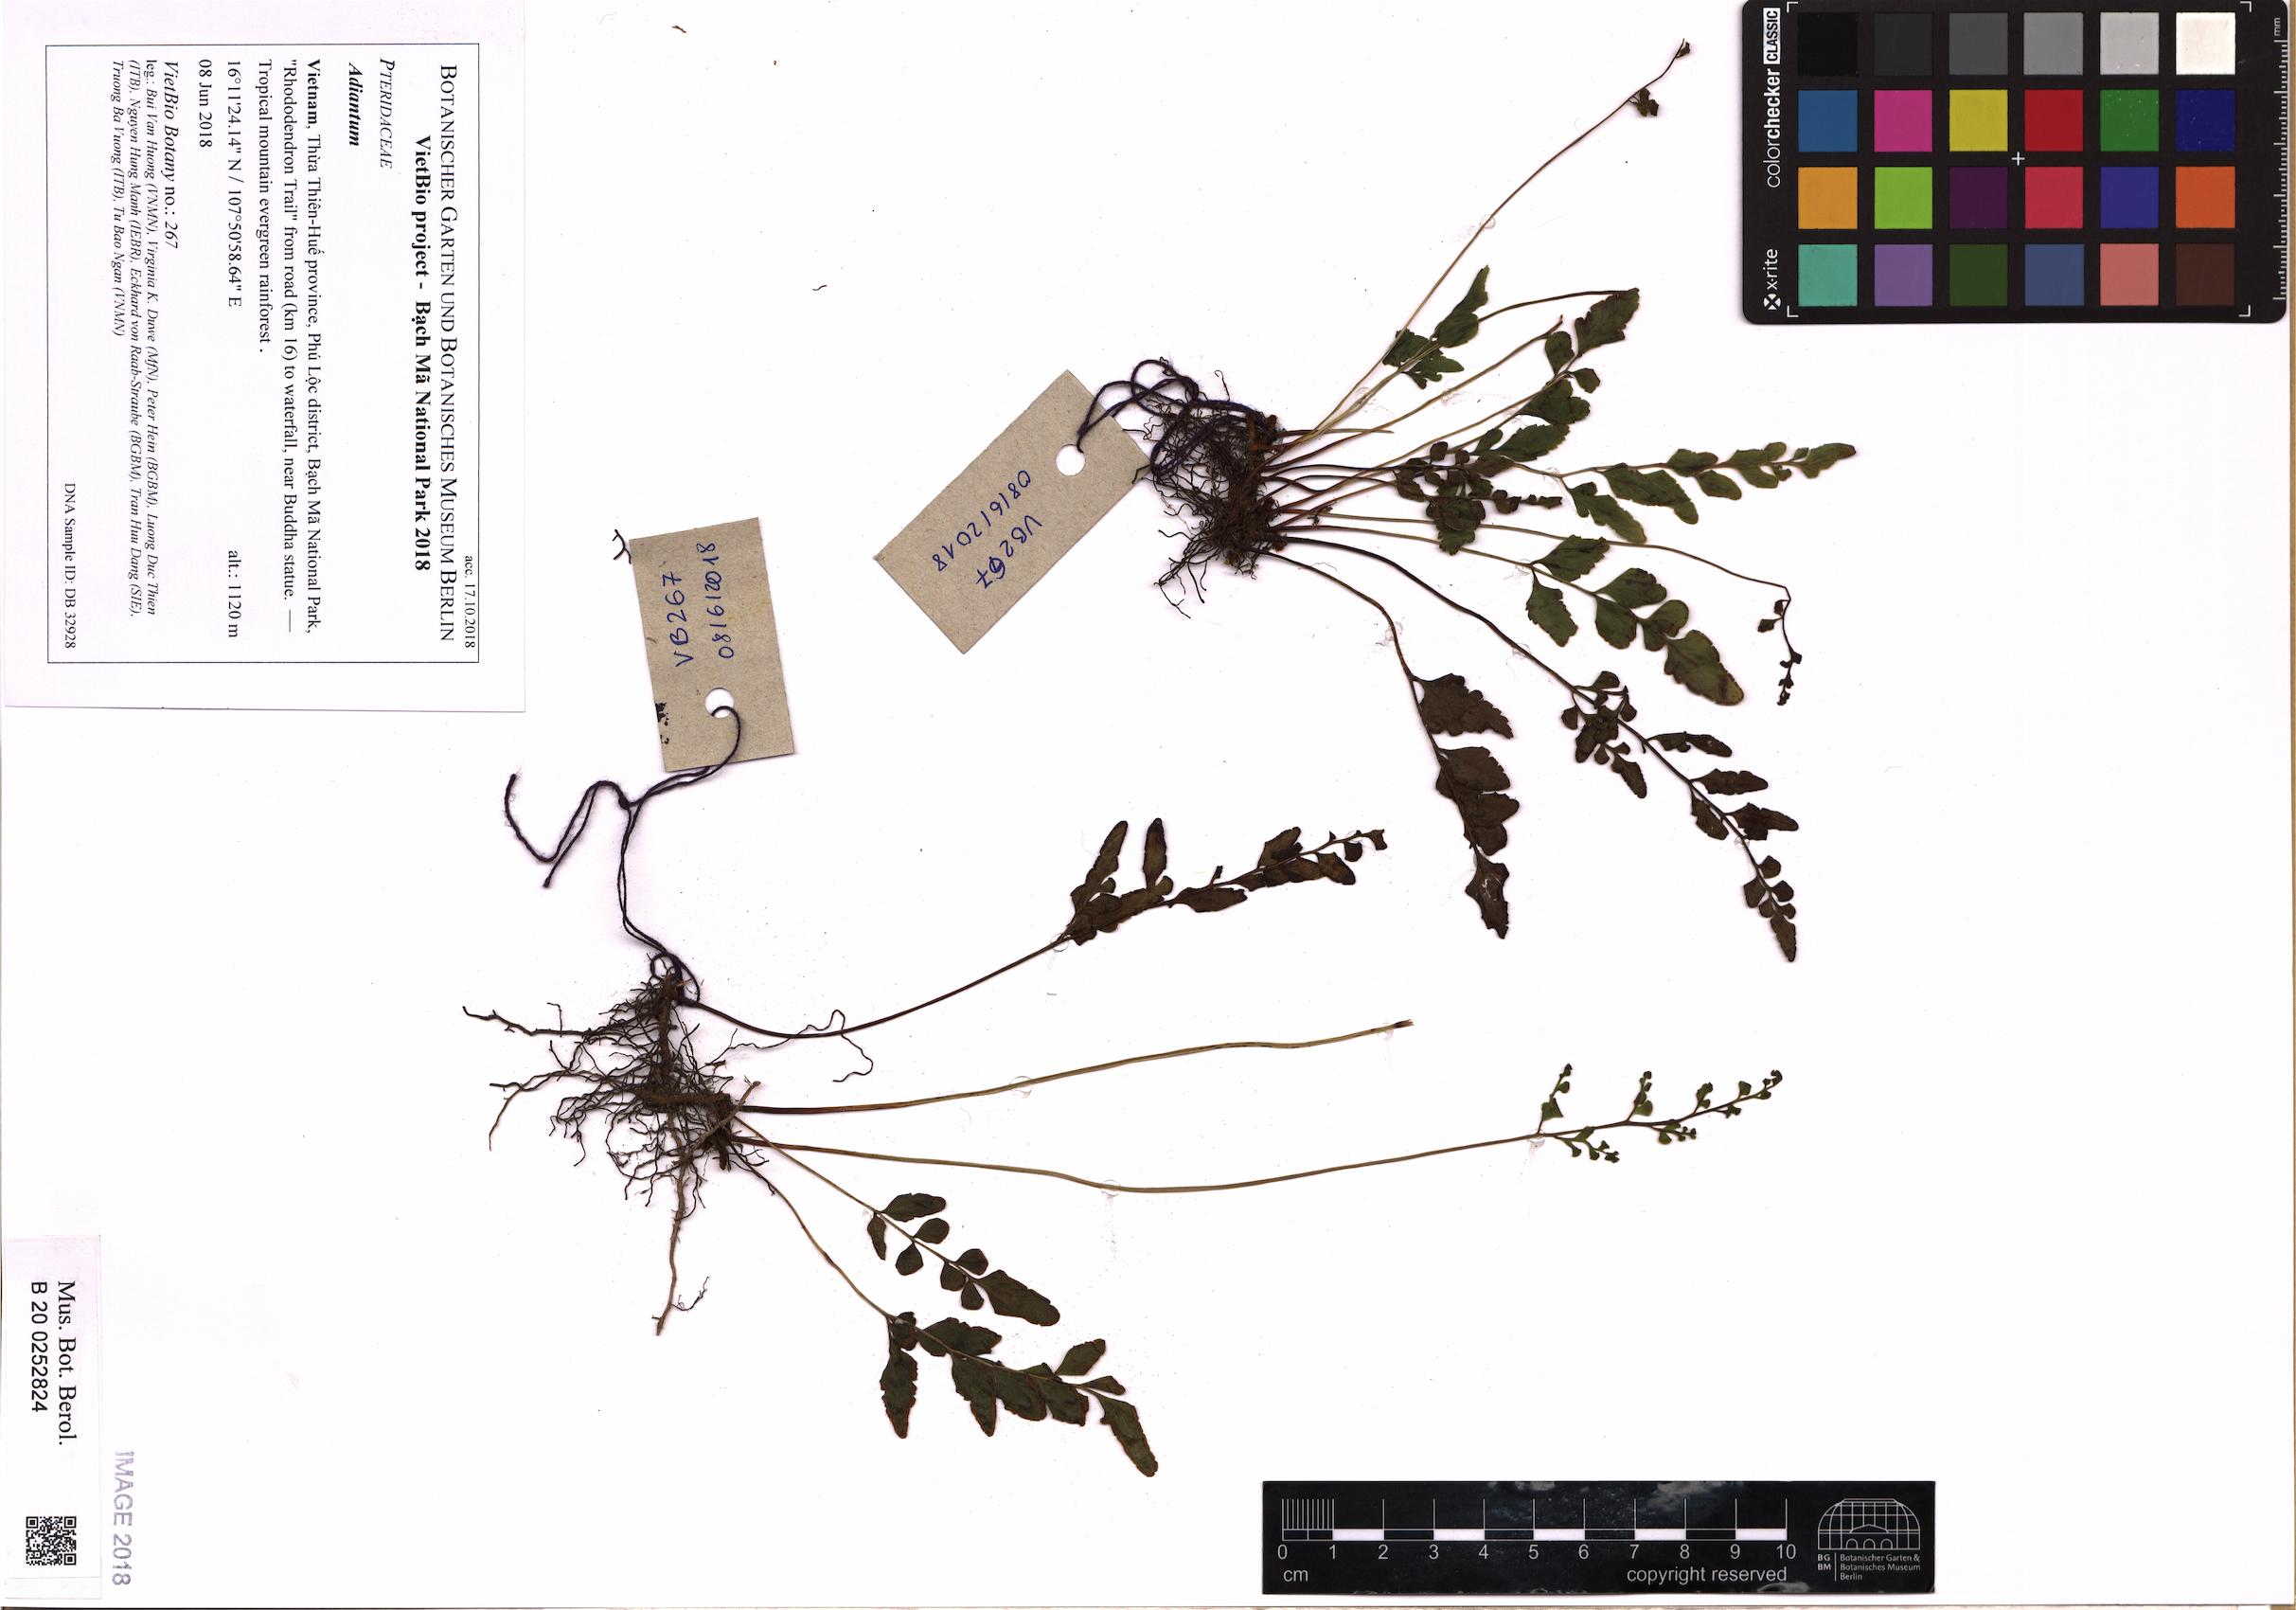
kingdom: Plantae
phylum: Tracheophyta
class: Polypodiopsida
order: Polypodiales
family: Pteridaceae
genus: Adiantum
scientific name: Adiantum
